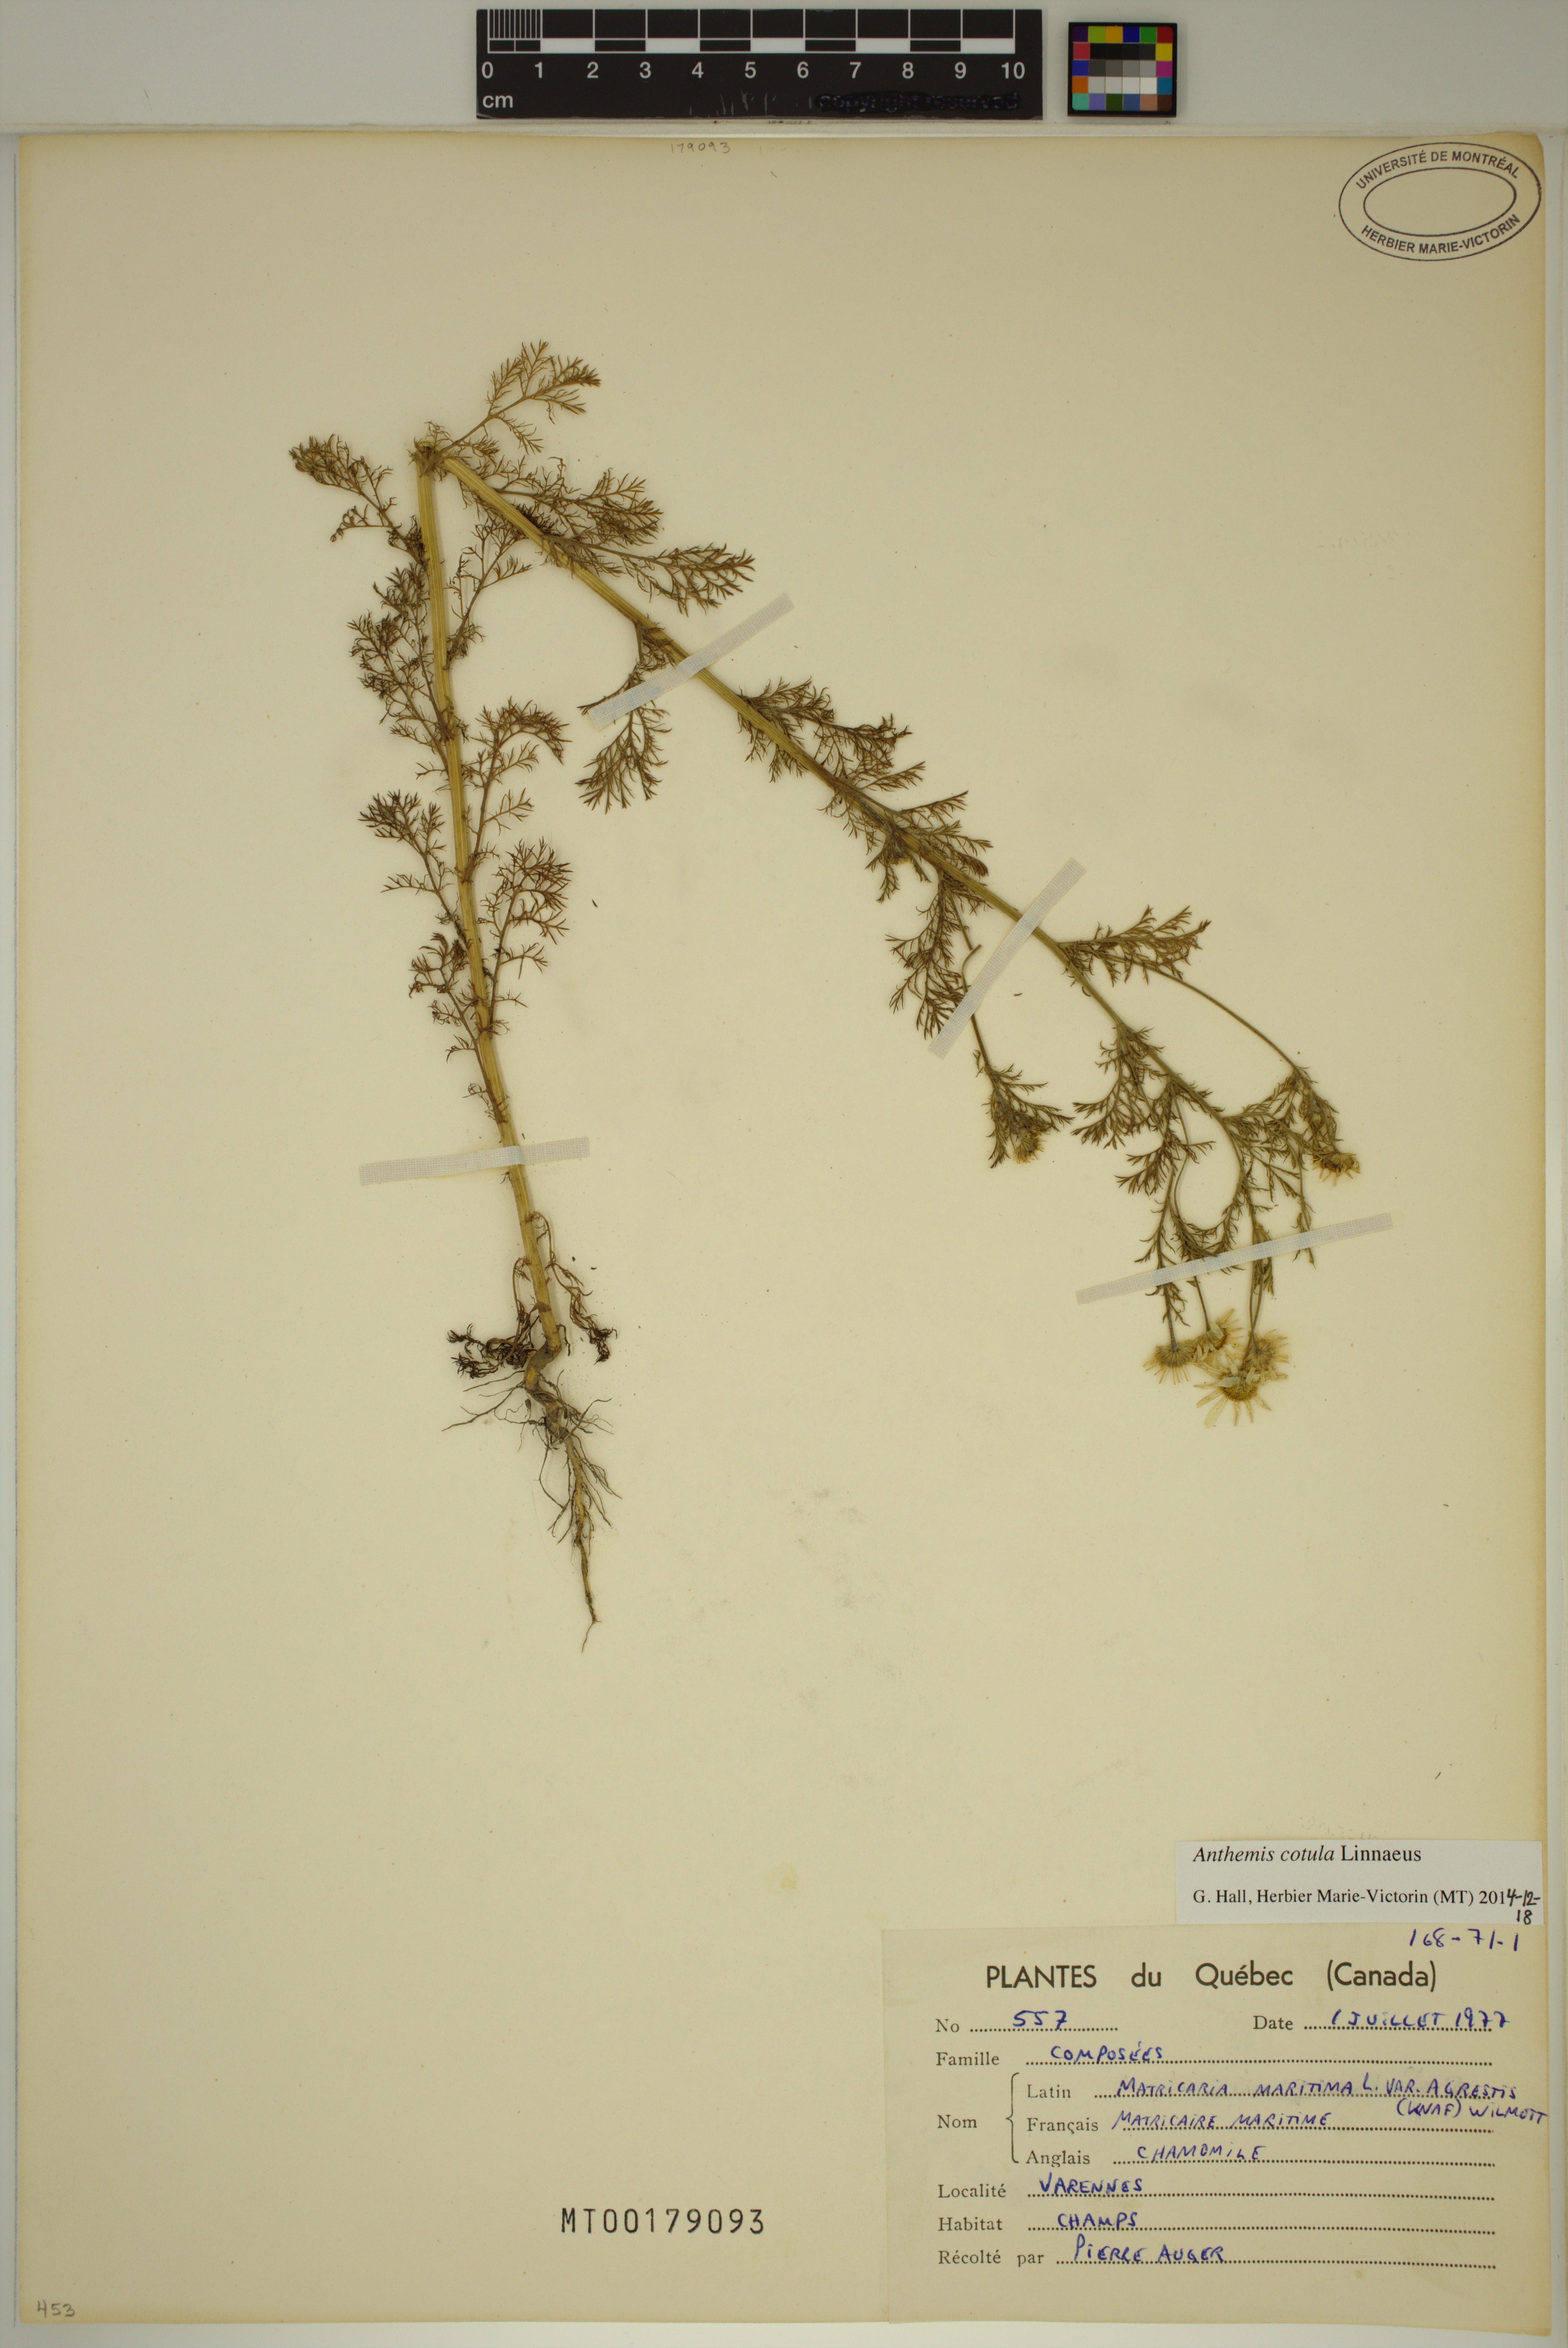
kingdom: Plantae
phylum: Tracheophyta
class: Magnoliopsida
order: Asterales
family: Asteraceae
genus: Anthemis
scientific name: Anthemis cotula
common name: Stinking chamomile
